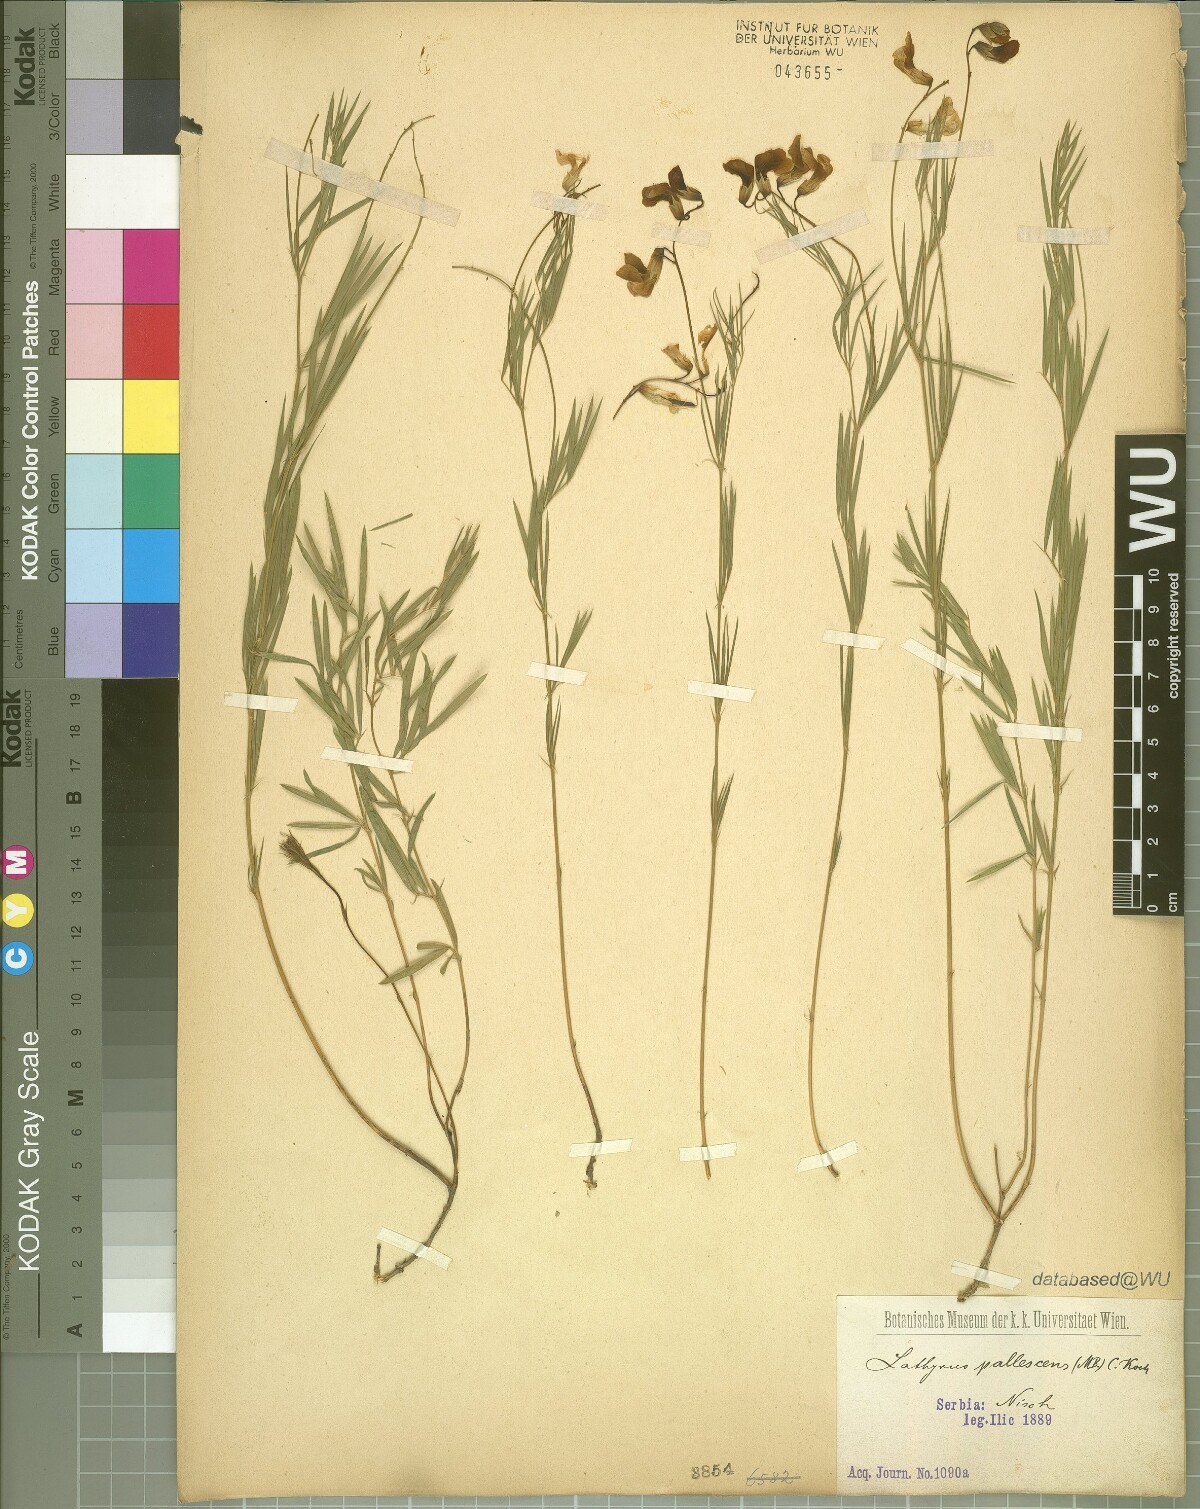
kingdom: Plantae
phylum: Tracheophyta
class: Magnoliopsida
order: Fabales
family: Fabaceae
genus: Lathyrus
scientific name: Lathyrus pallescens
